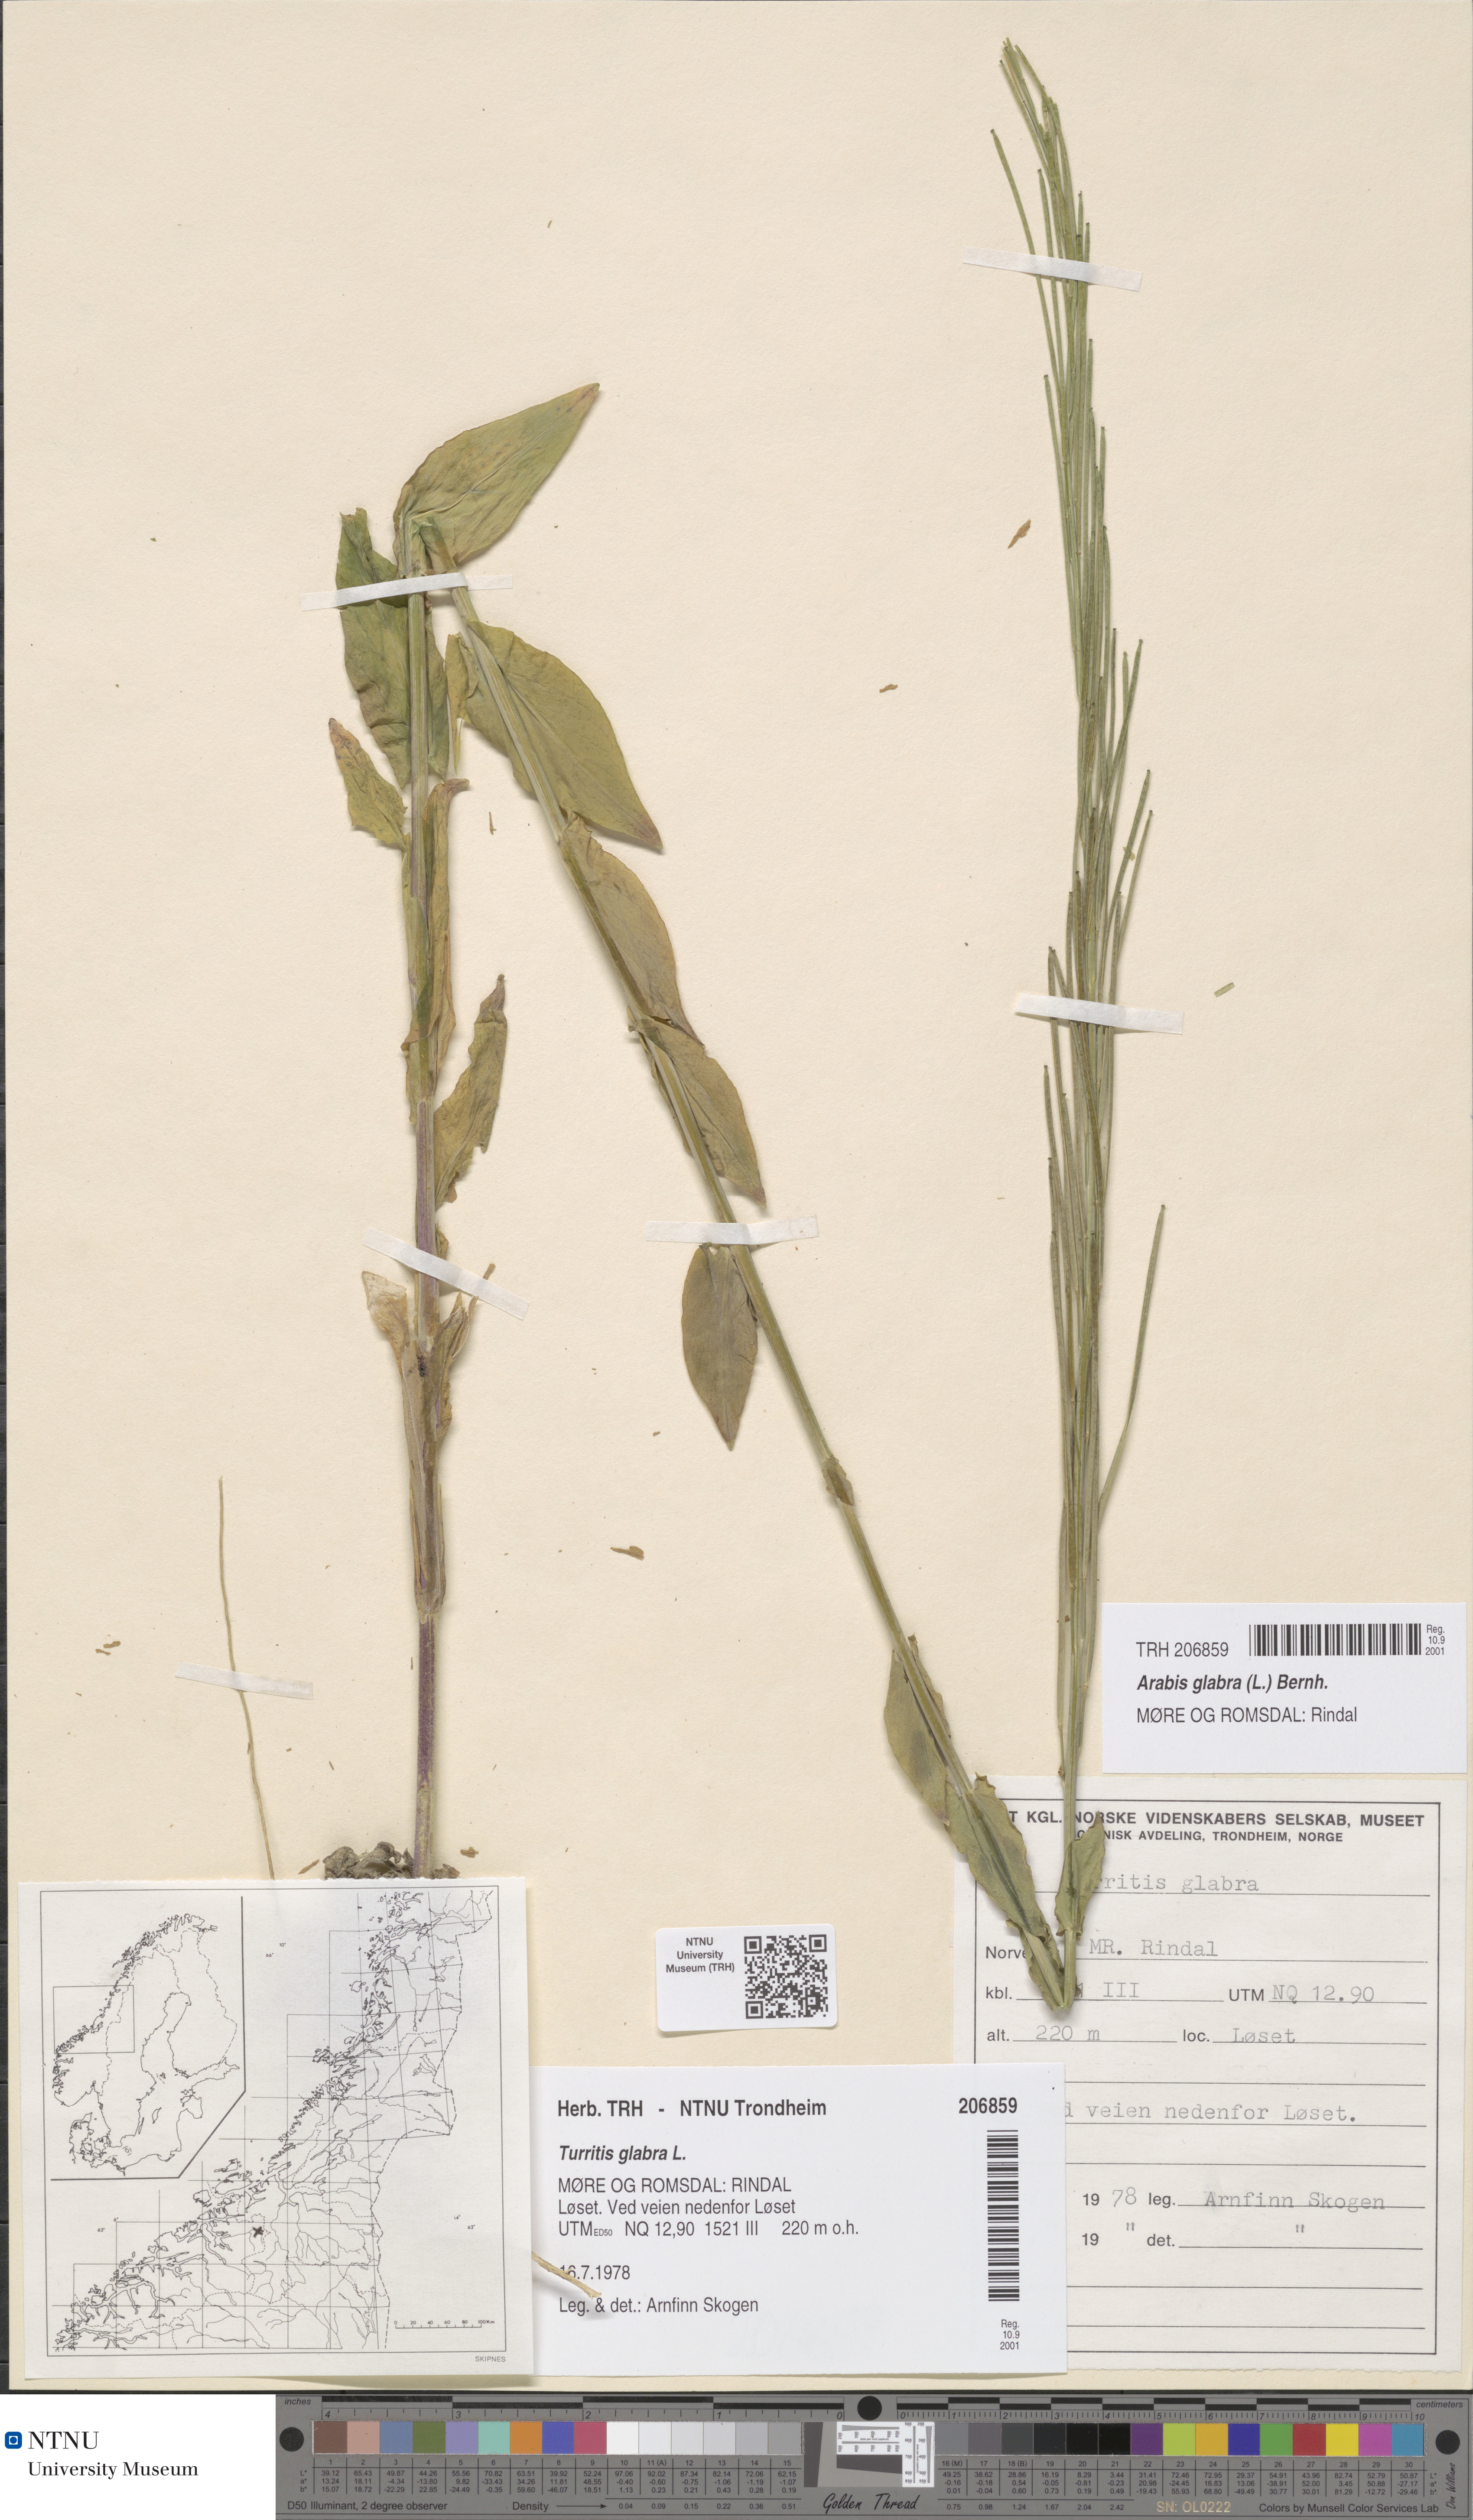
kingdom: Plantae
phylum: Tracheophyta
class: Magnoliopsida
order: Brassicales
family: Brassicaceae
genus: Turritis
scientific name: Turritis glabra
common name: Tower rockcress
